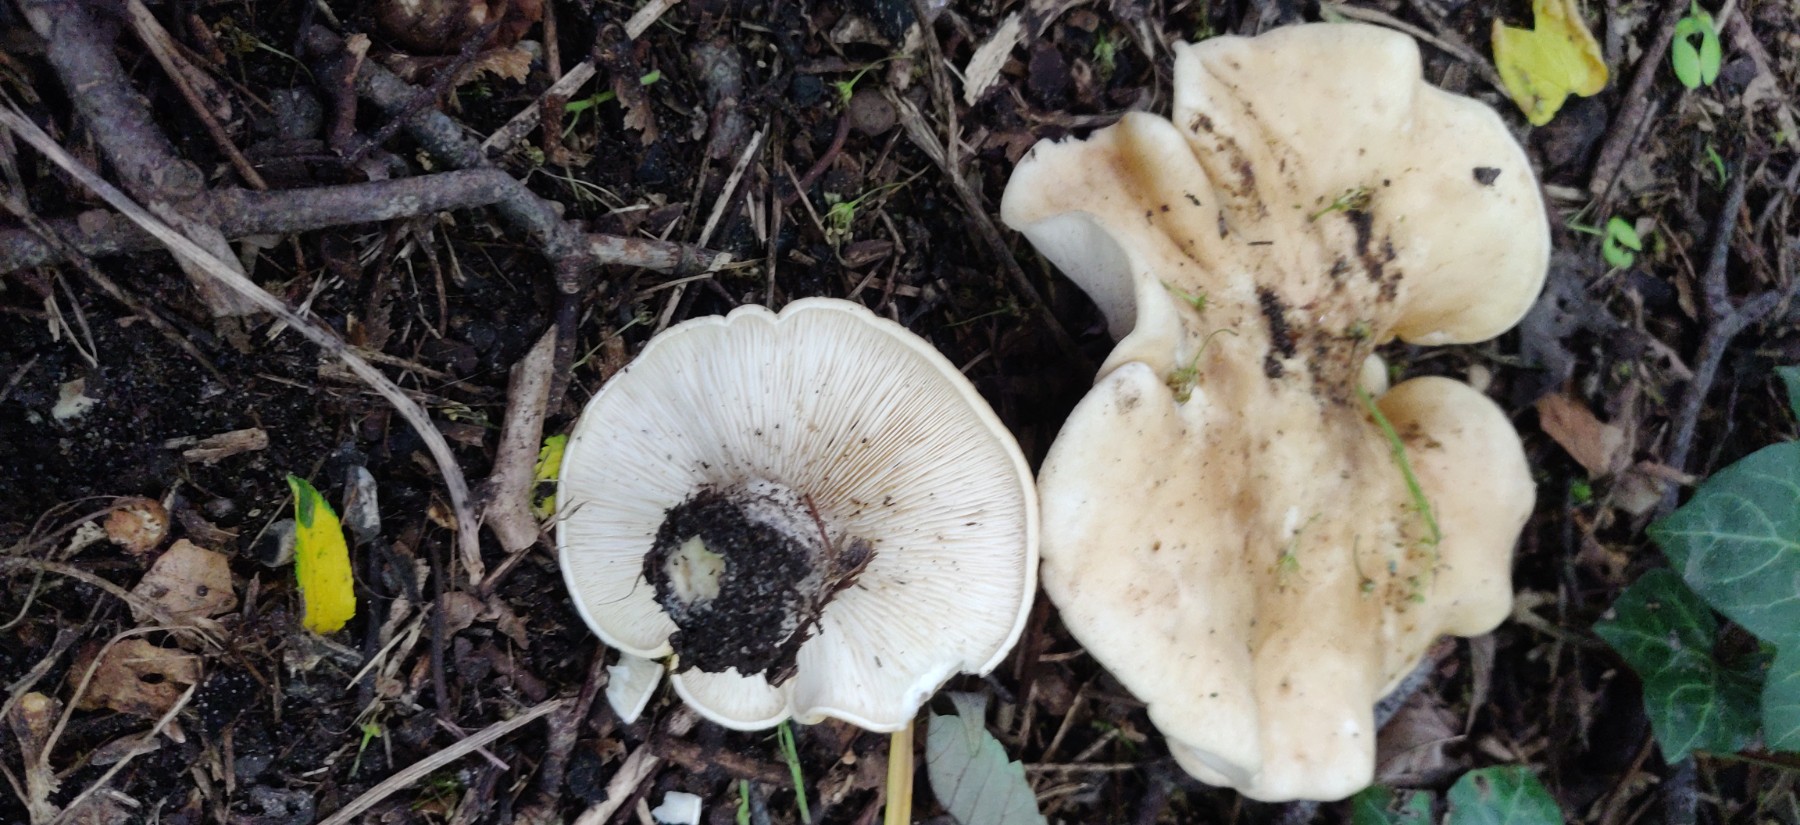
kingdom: Fungi
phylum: Basidiomycota
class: Agaricomycetes
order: Agaricales
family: Lyophyllaceae
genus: Calocybe
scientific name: Calocybe gambosa
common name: vårmusseron
